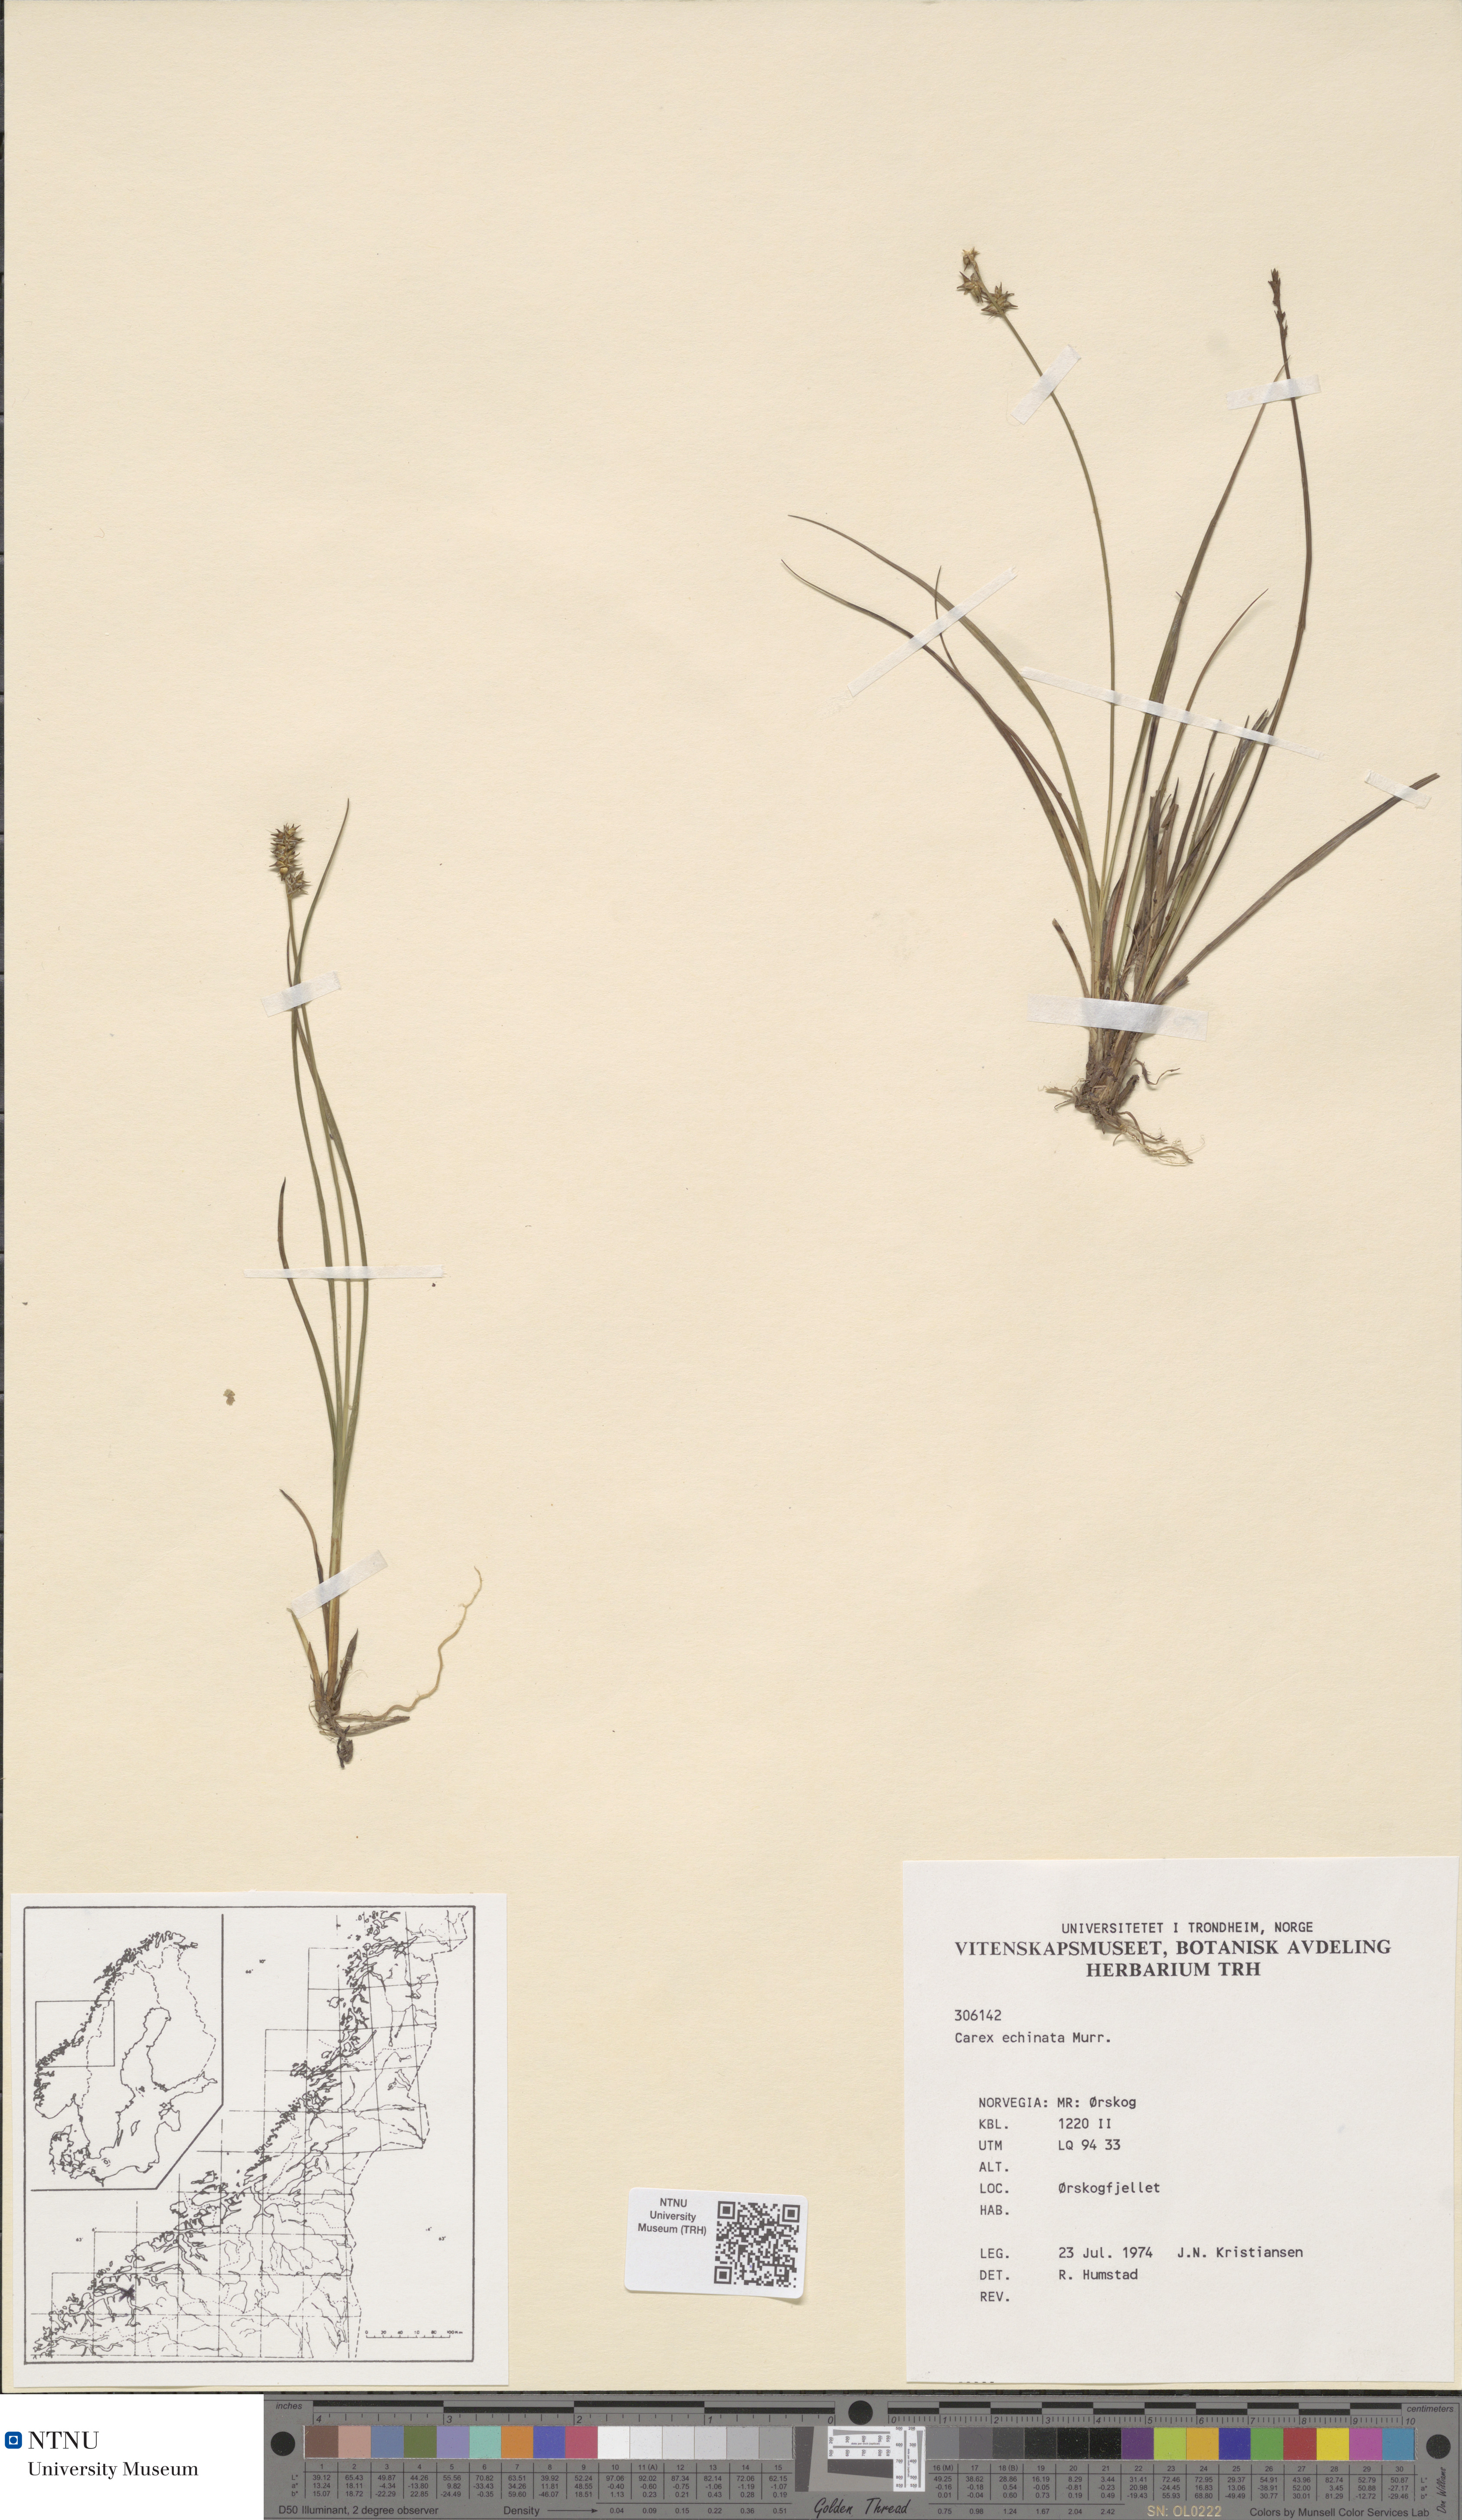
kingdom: Plantae
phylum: Tracheophyta
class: Liliopsida
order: Poales
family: Cyperaceae
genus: Carex
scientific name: Carex echinata
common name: Star sedge
